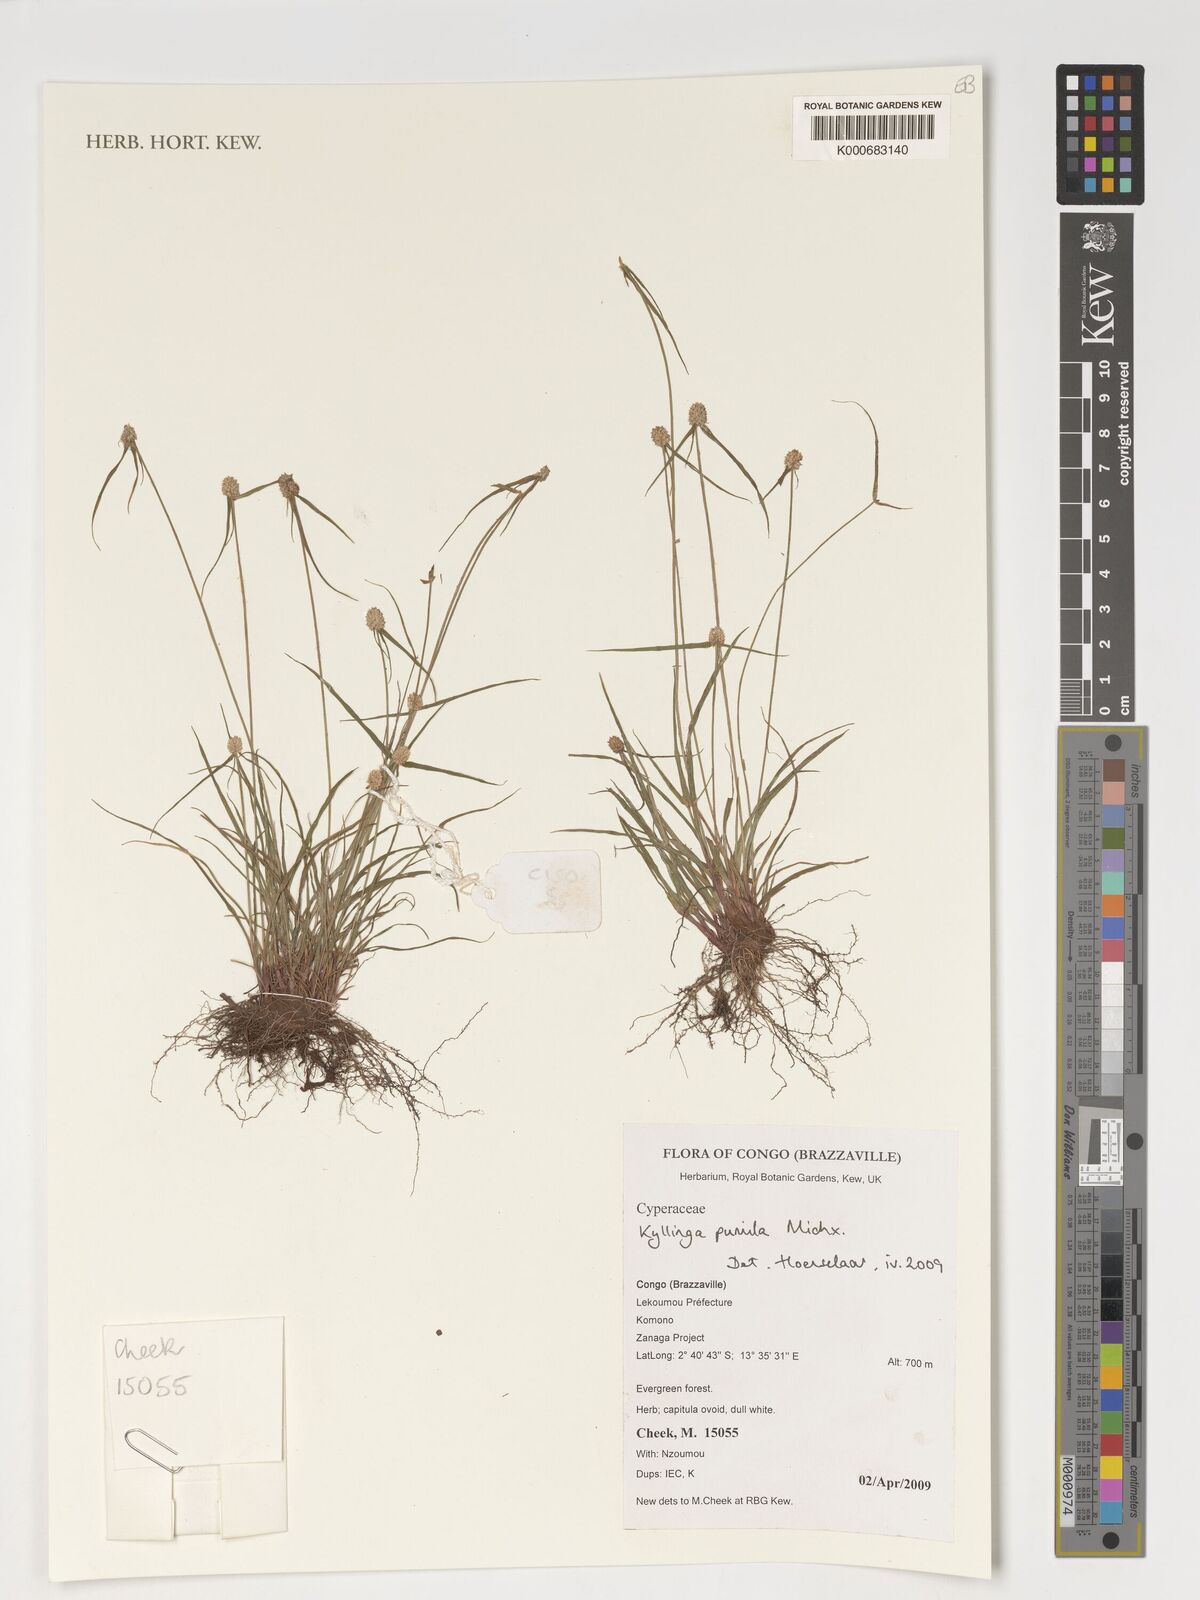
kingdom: Plantae
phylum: Tracheophyta
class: Liliopsida
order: Poales
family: Cyperaceae
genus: Cyperus
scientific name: Cyperus hortensis
